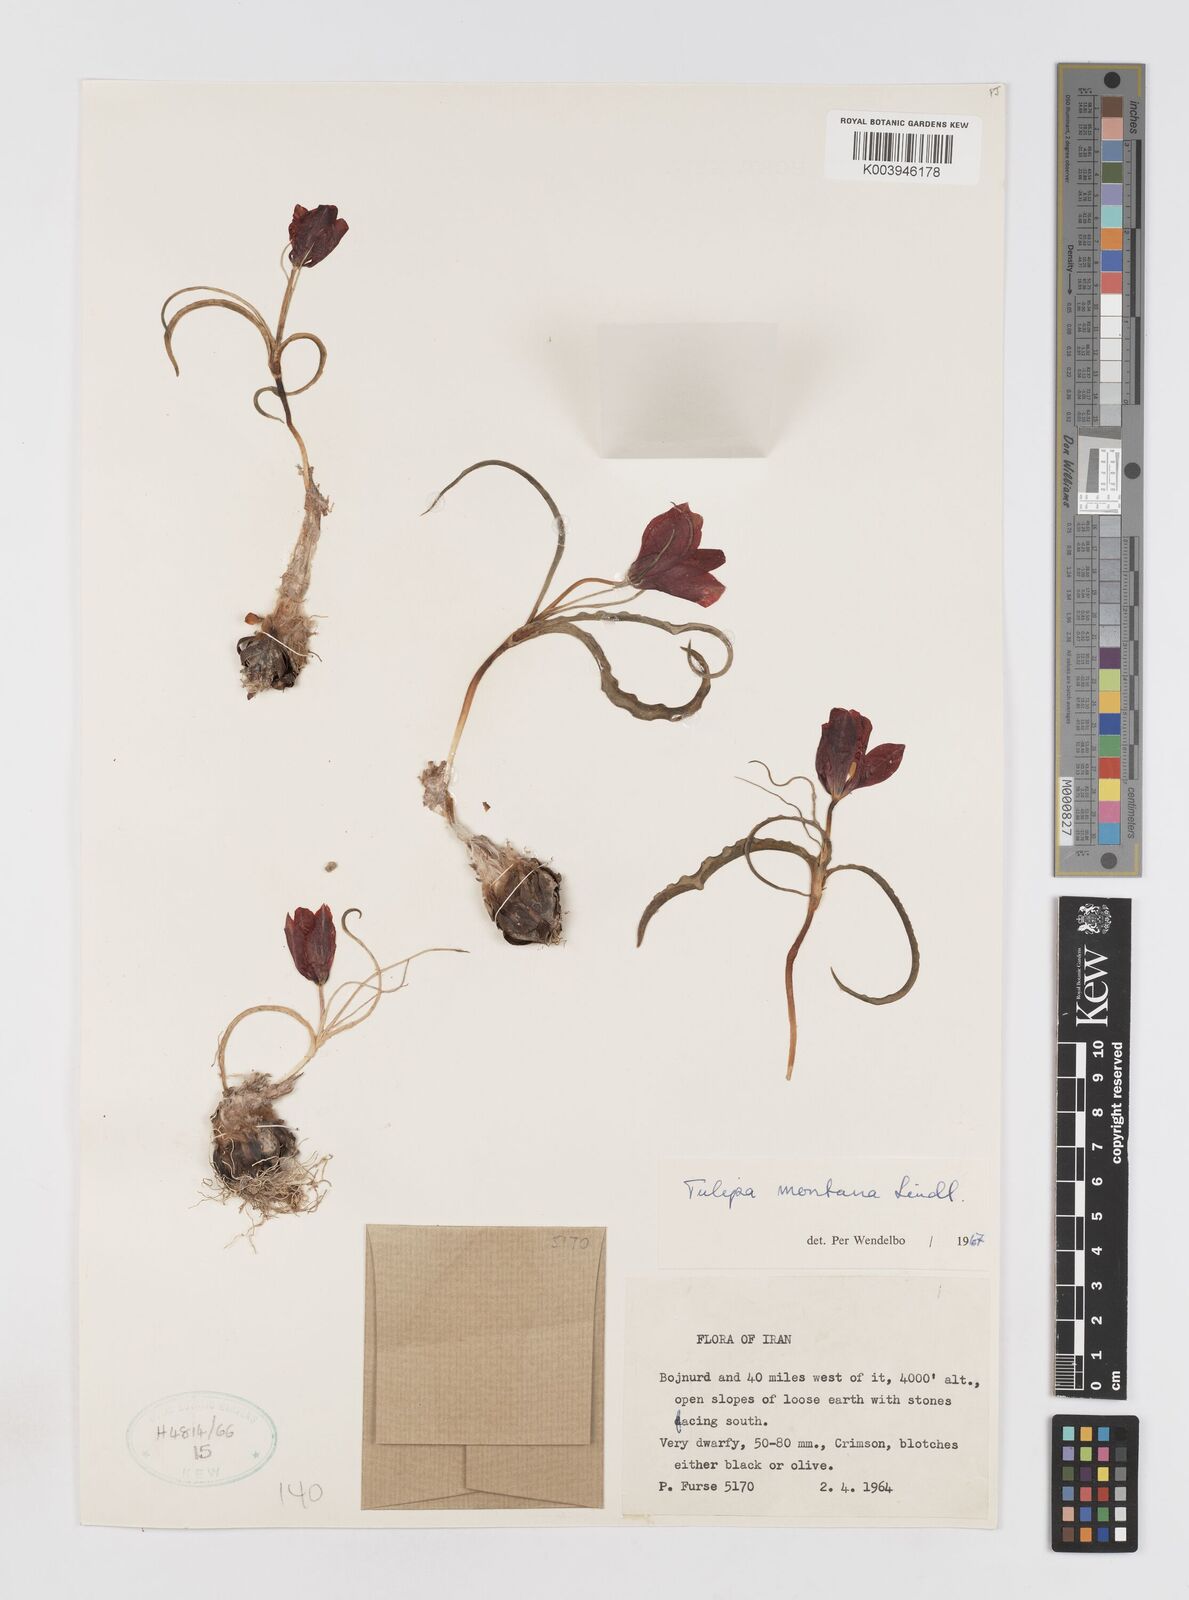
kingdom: Plantae
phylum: Tracheophyta
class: Liliopsida
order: Liliales
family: Liliaceae
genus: Tulipa
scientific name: Tulipa montana
